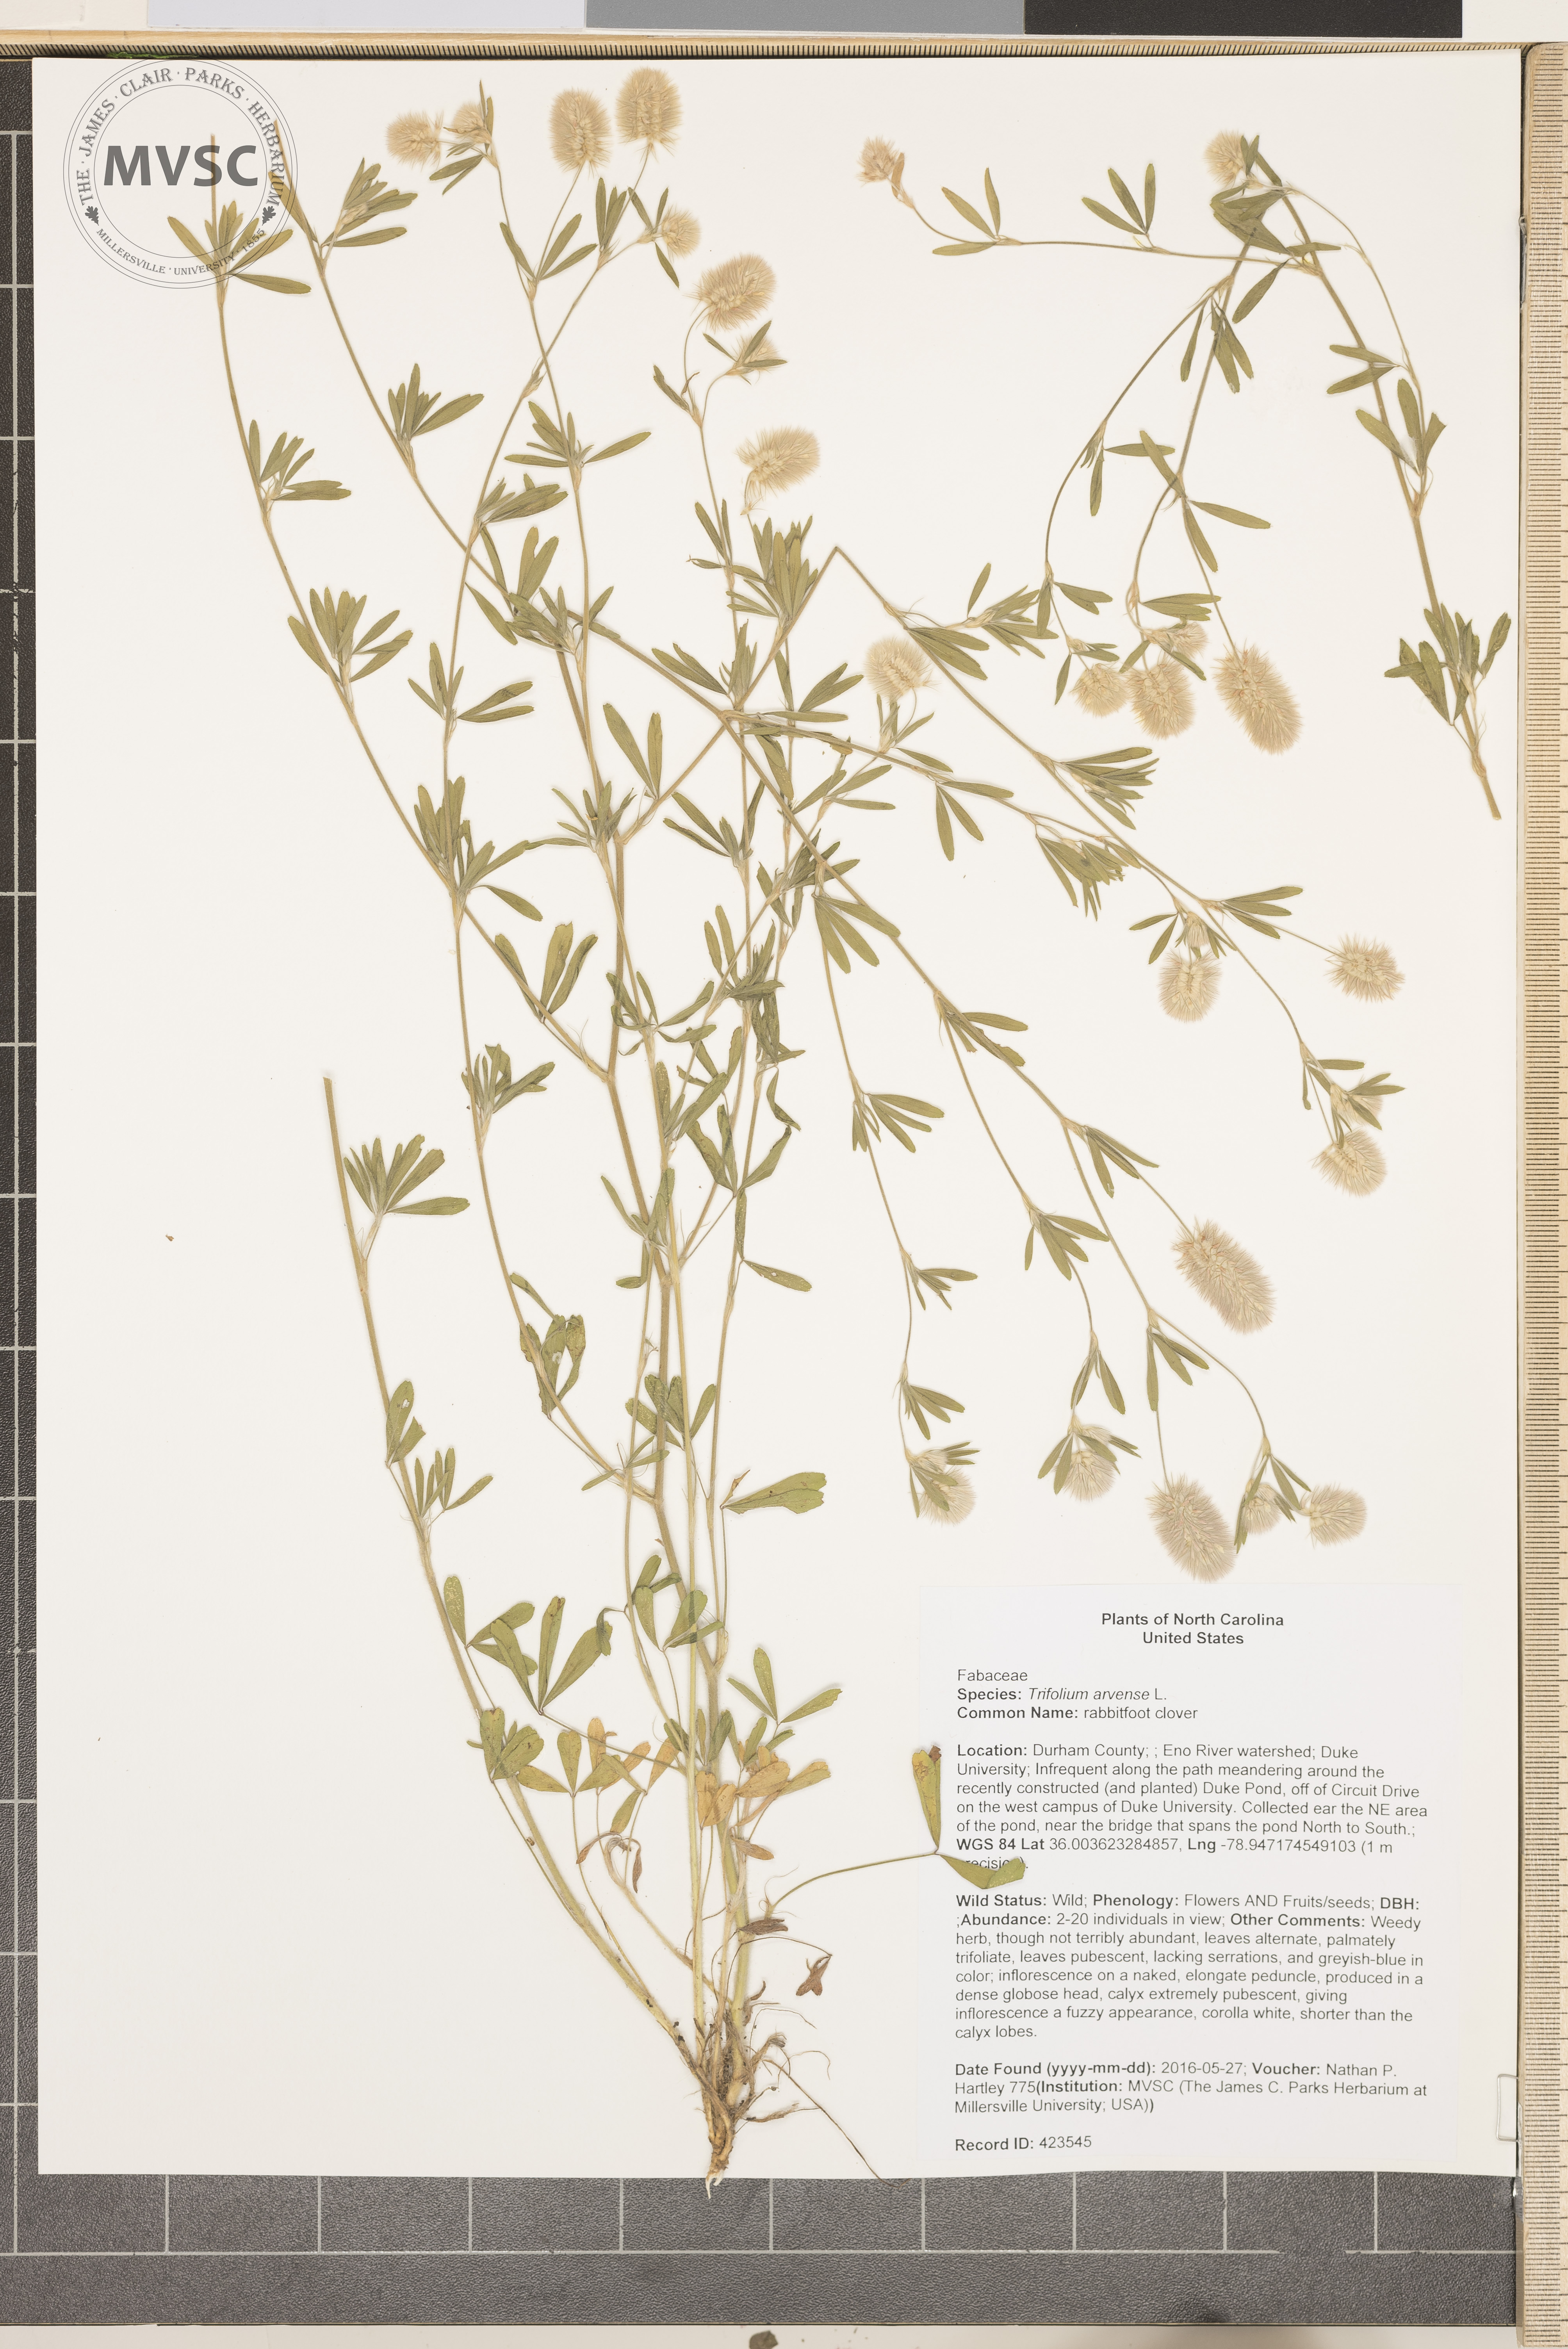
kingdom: Plantae
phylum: Tracheophyta
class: Magnoliopsida
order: Fabales
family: Fabaceae
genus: Trifolium
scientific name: Trifolium arvense
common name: rabbitfoot clover
